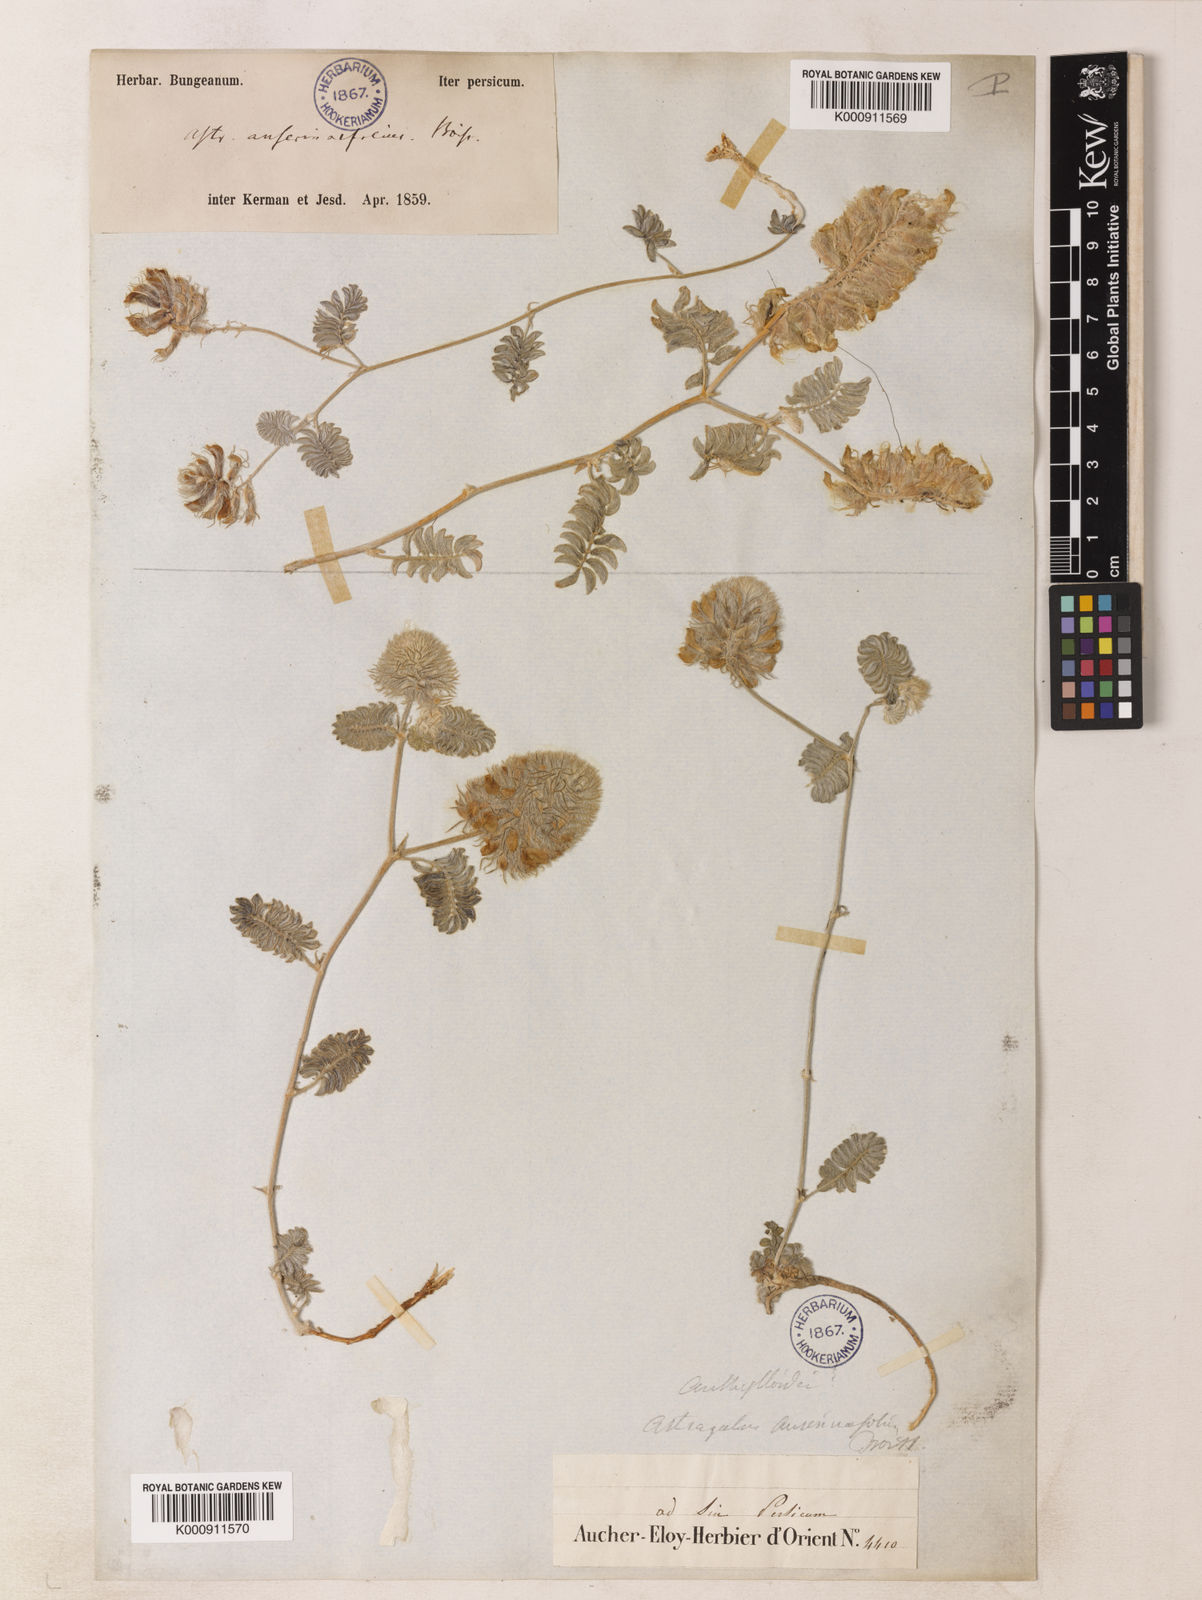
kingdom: Plantae
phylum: Tracheophyta
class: Magnoliopsida
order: Fabales
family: Fabaceae
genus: Astragalus
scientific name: Astragalus anserinifolius
